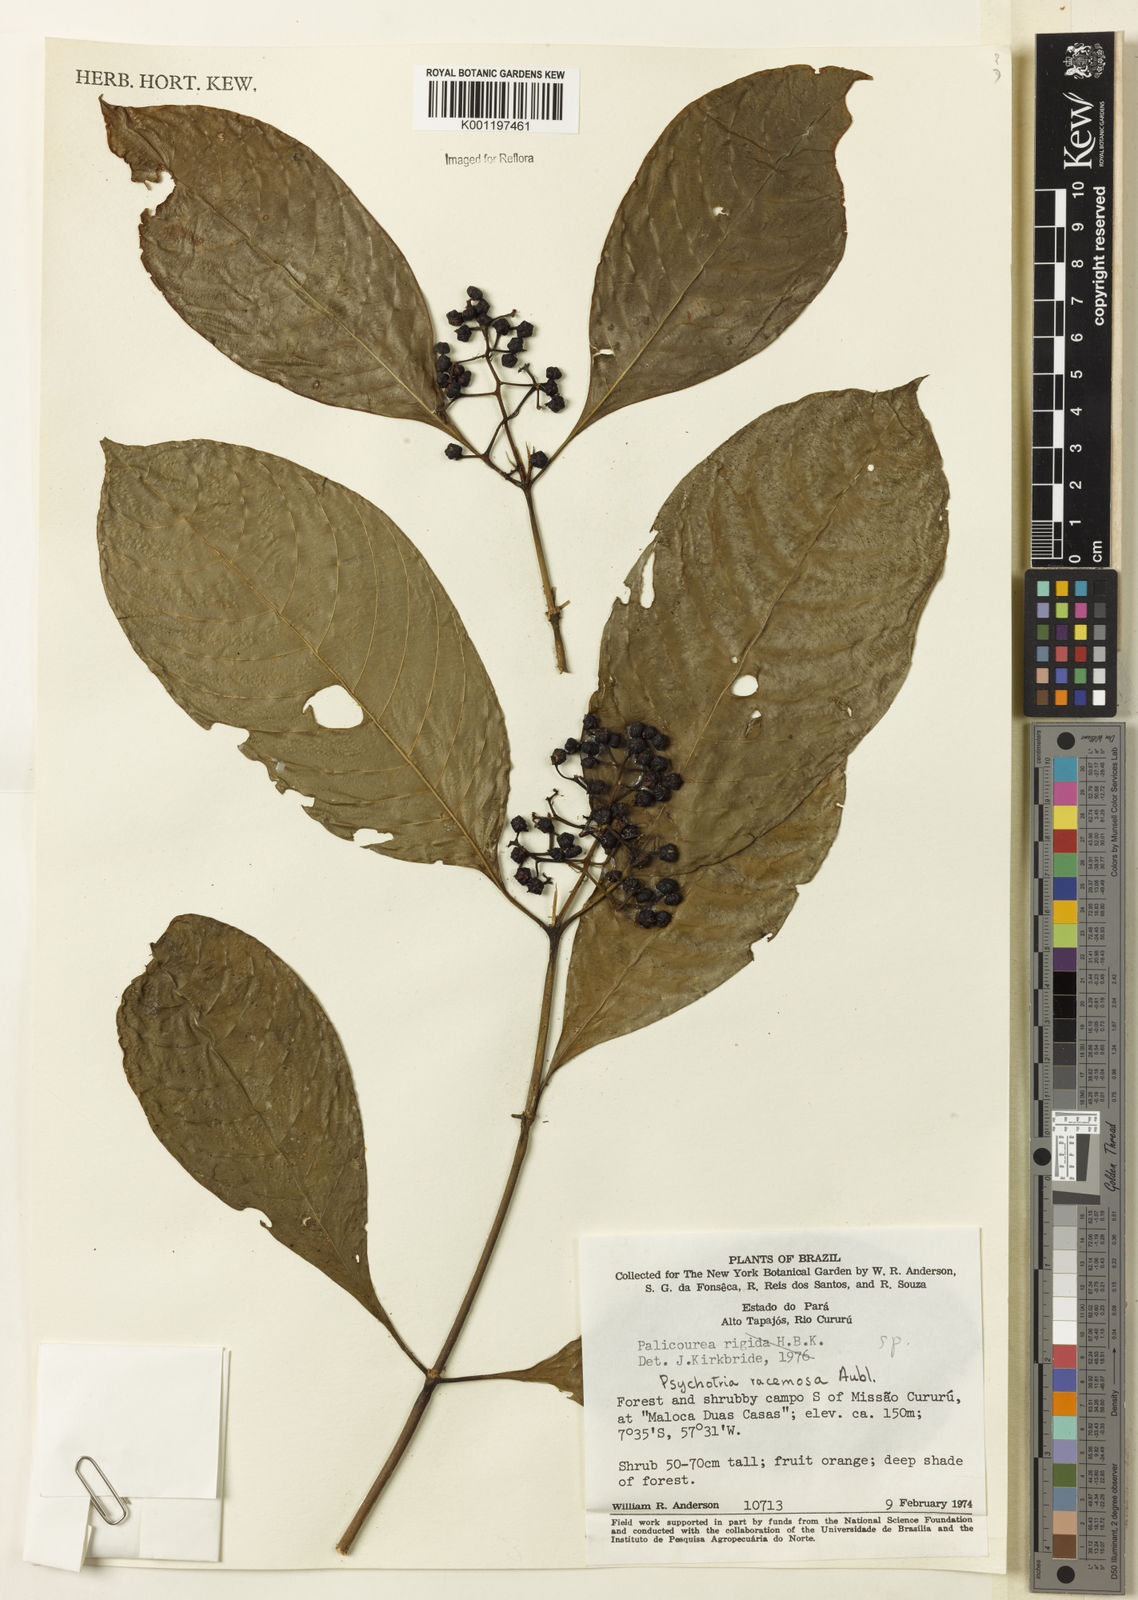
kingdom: Plantae
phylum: Tracheophyta
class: Magnoliopsida
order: Gentianales
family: Rubiaceae
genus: Palicourea
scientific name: Palicourea racemosa
